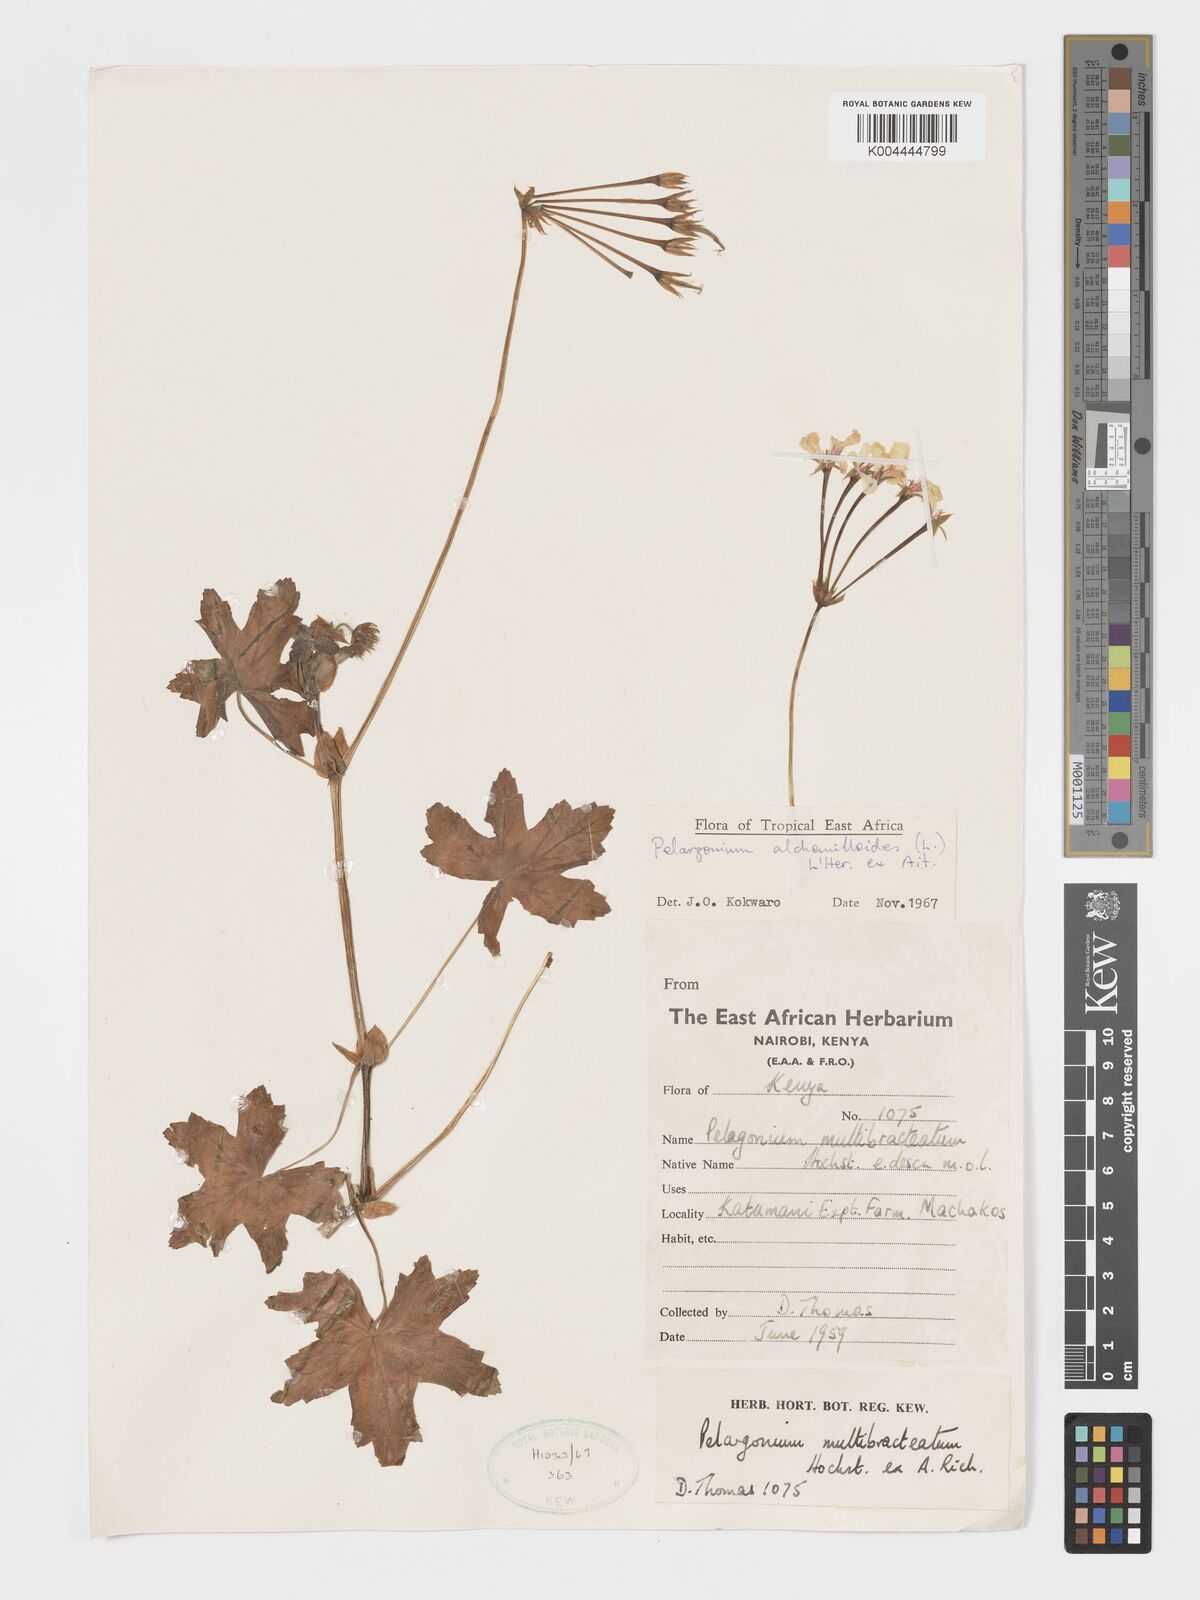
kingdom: Plantae
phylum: Tracheophyta
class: Magnoliopsida
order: Geraniales
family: Geraniaceae
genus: Pelargonium
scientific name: Pelargonium alchemilloides
